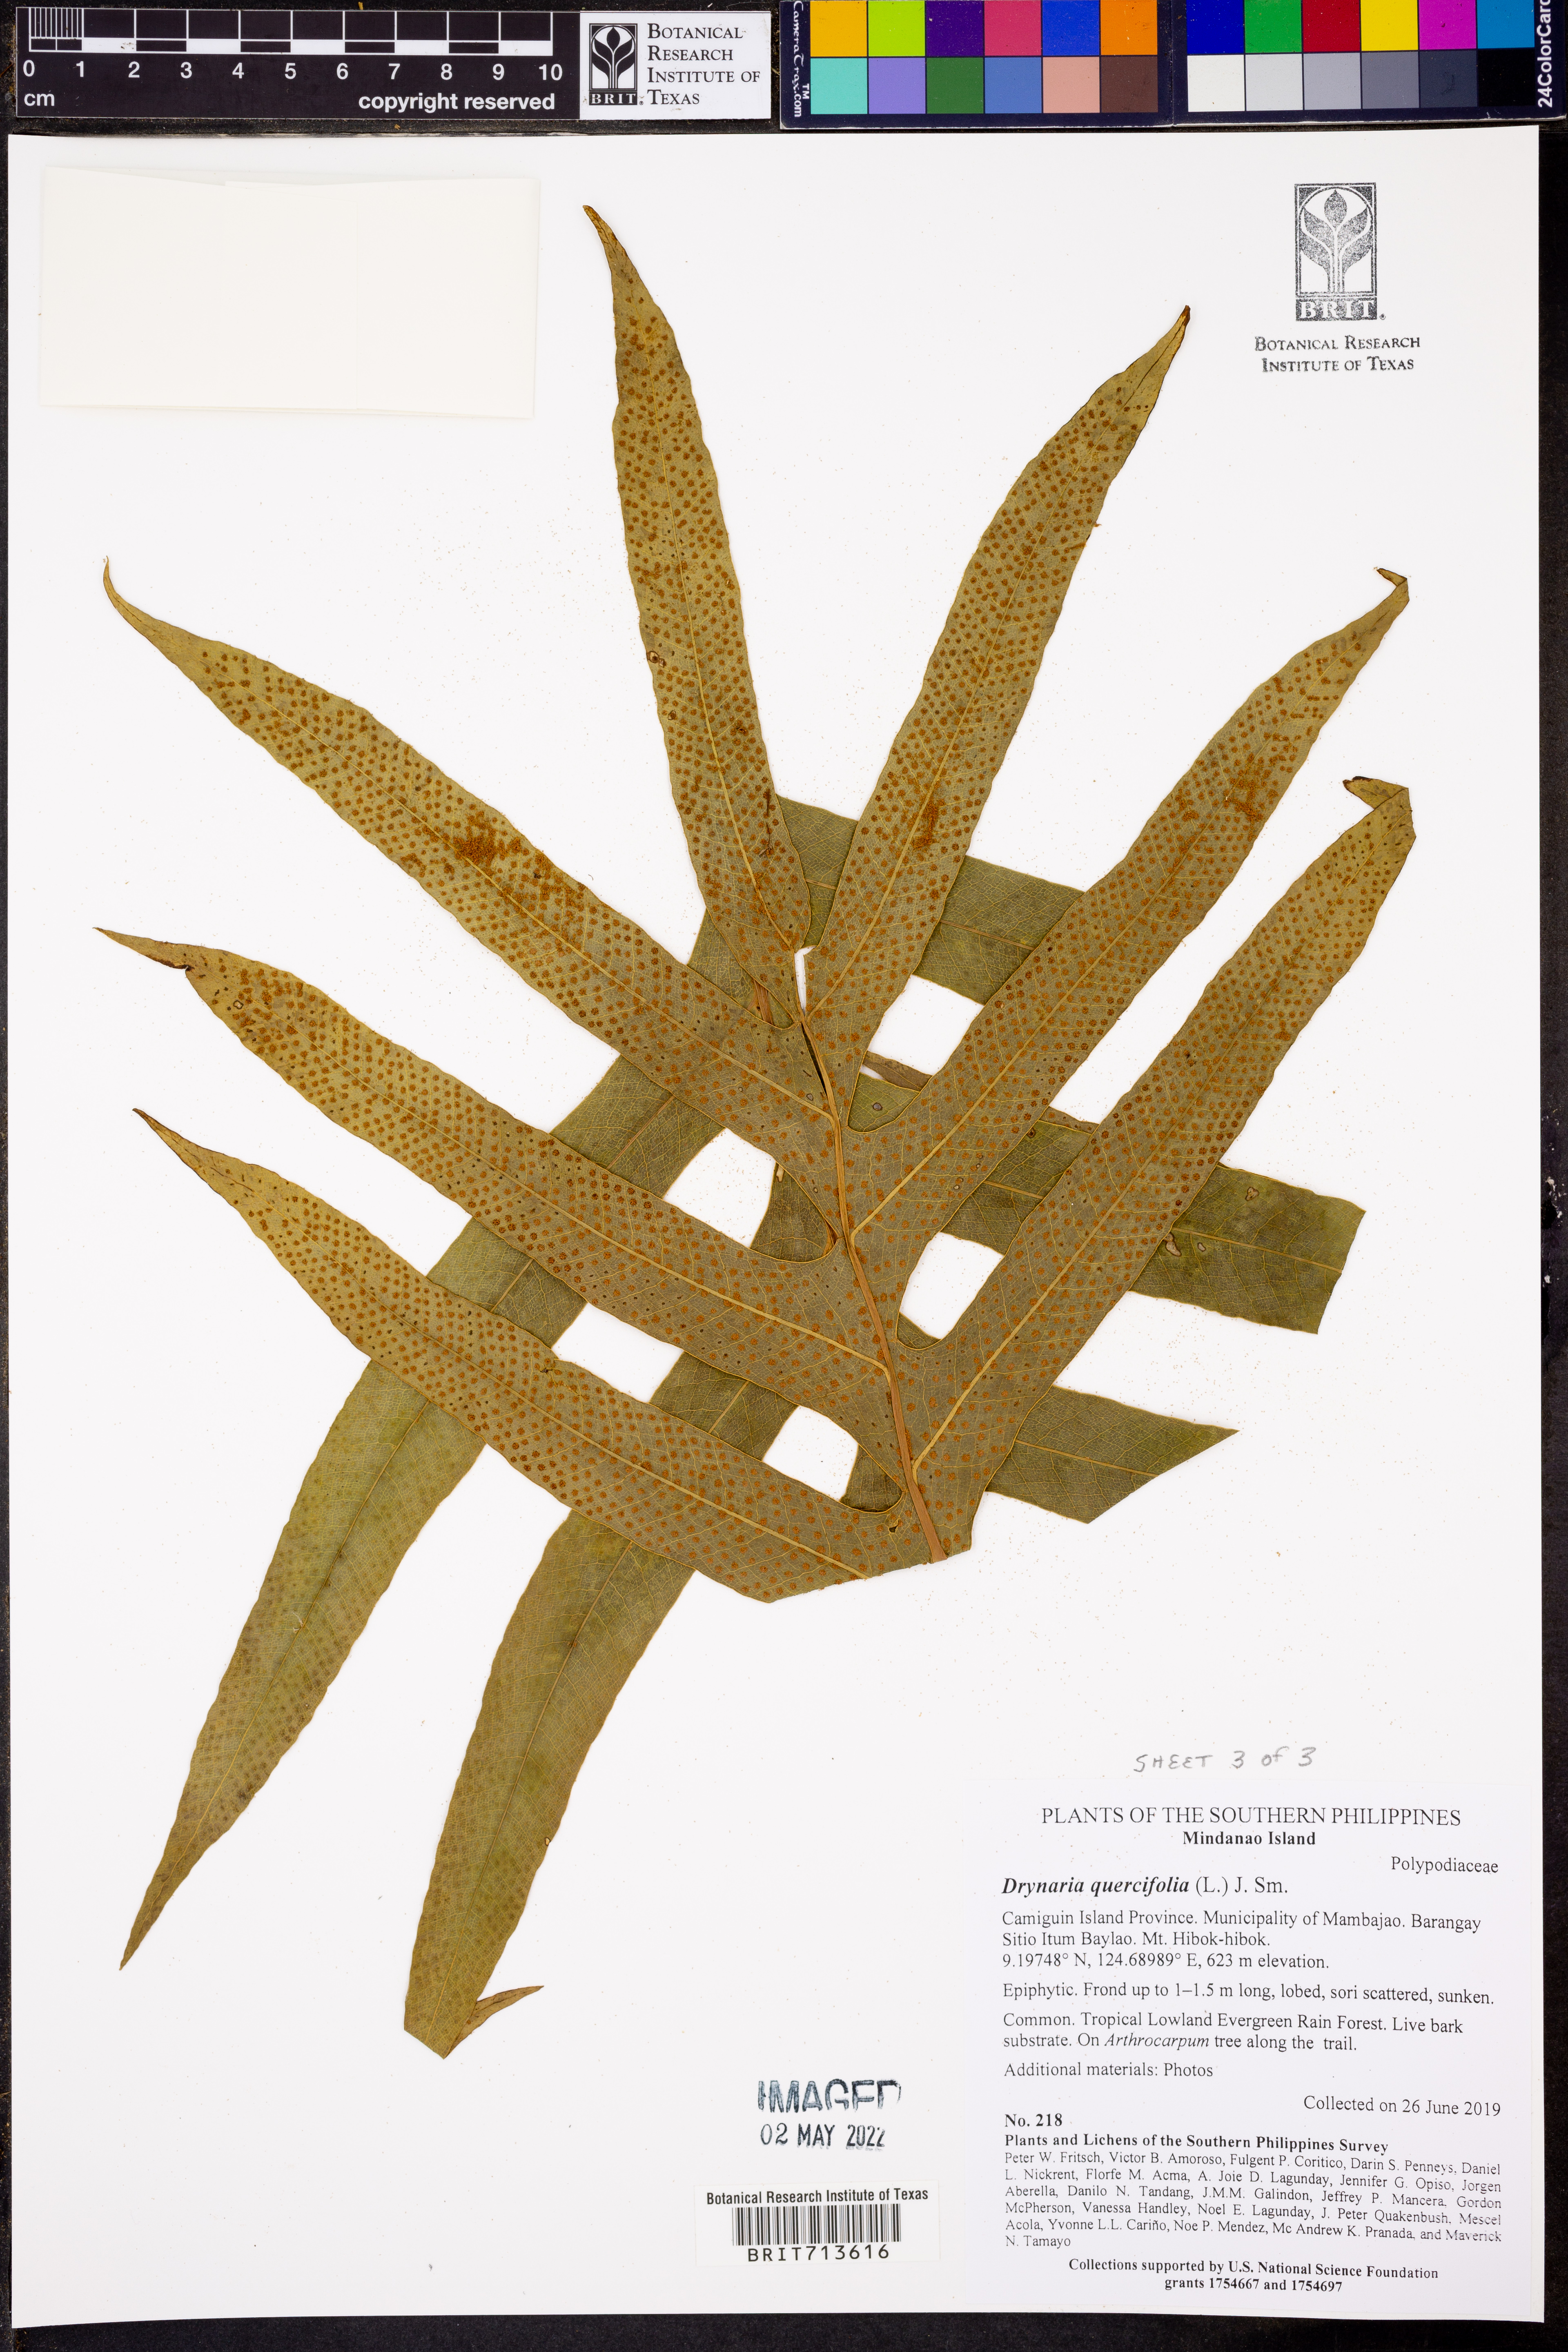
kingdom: Plantae
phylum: Tracheophyta
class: Polypodiopsida
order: Polypodiales
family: Polypodiaceae
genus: Drynaria
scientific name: Drynaria quercifolia
